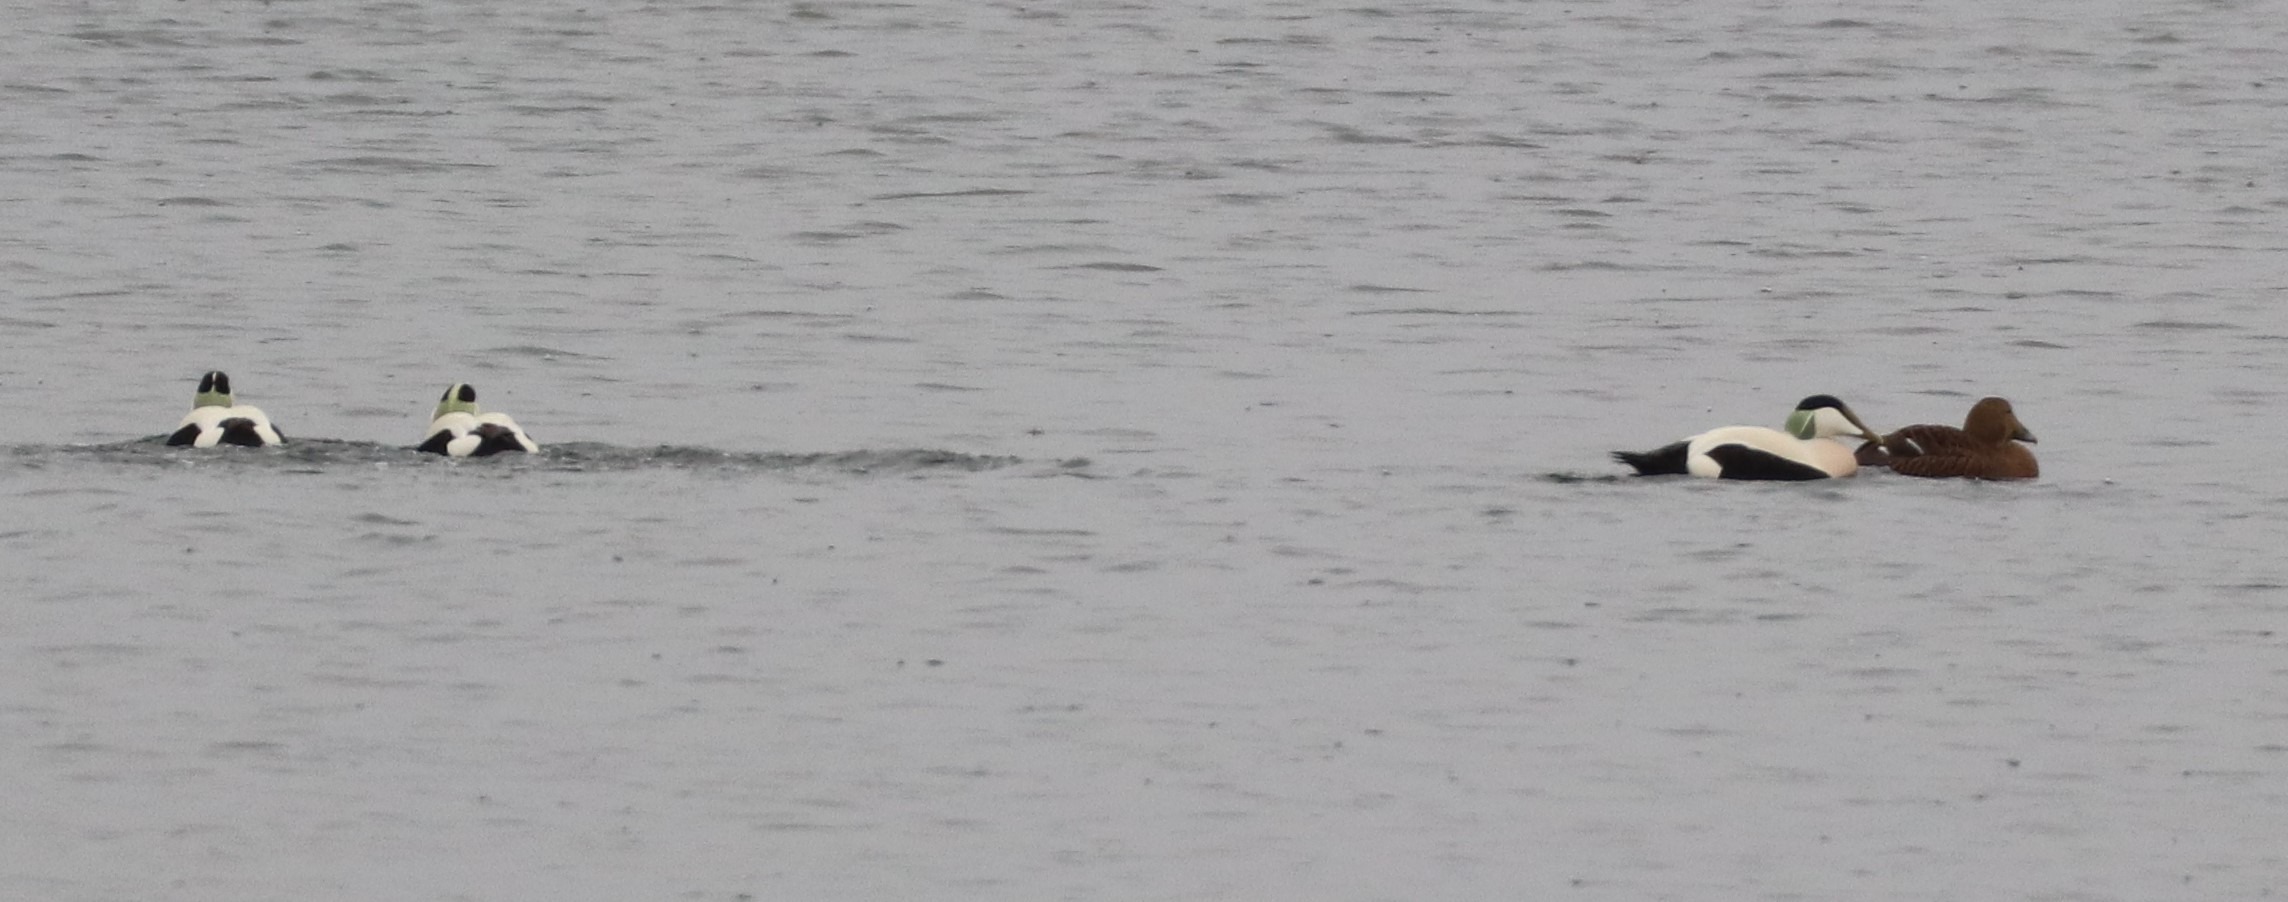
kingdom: Animalia
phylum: Chordata
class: Aves
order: Anseriformes
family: Anatidae
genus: Somateria
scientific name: Somateria mollissima
